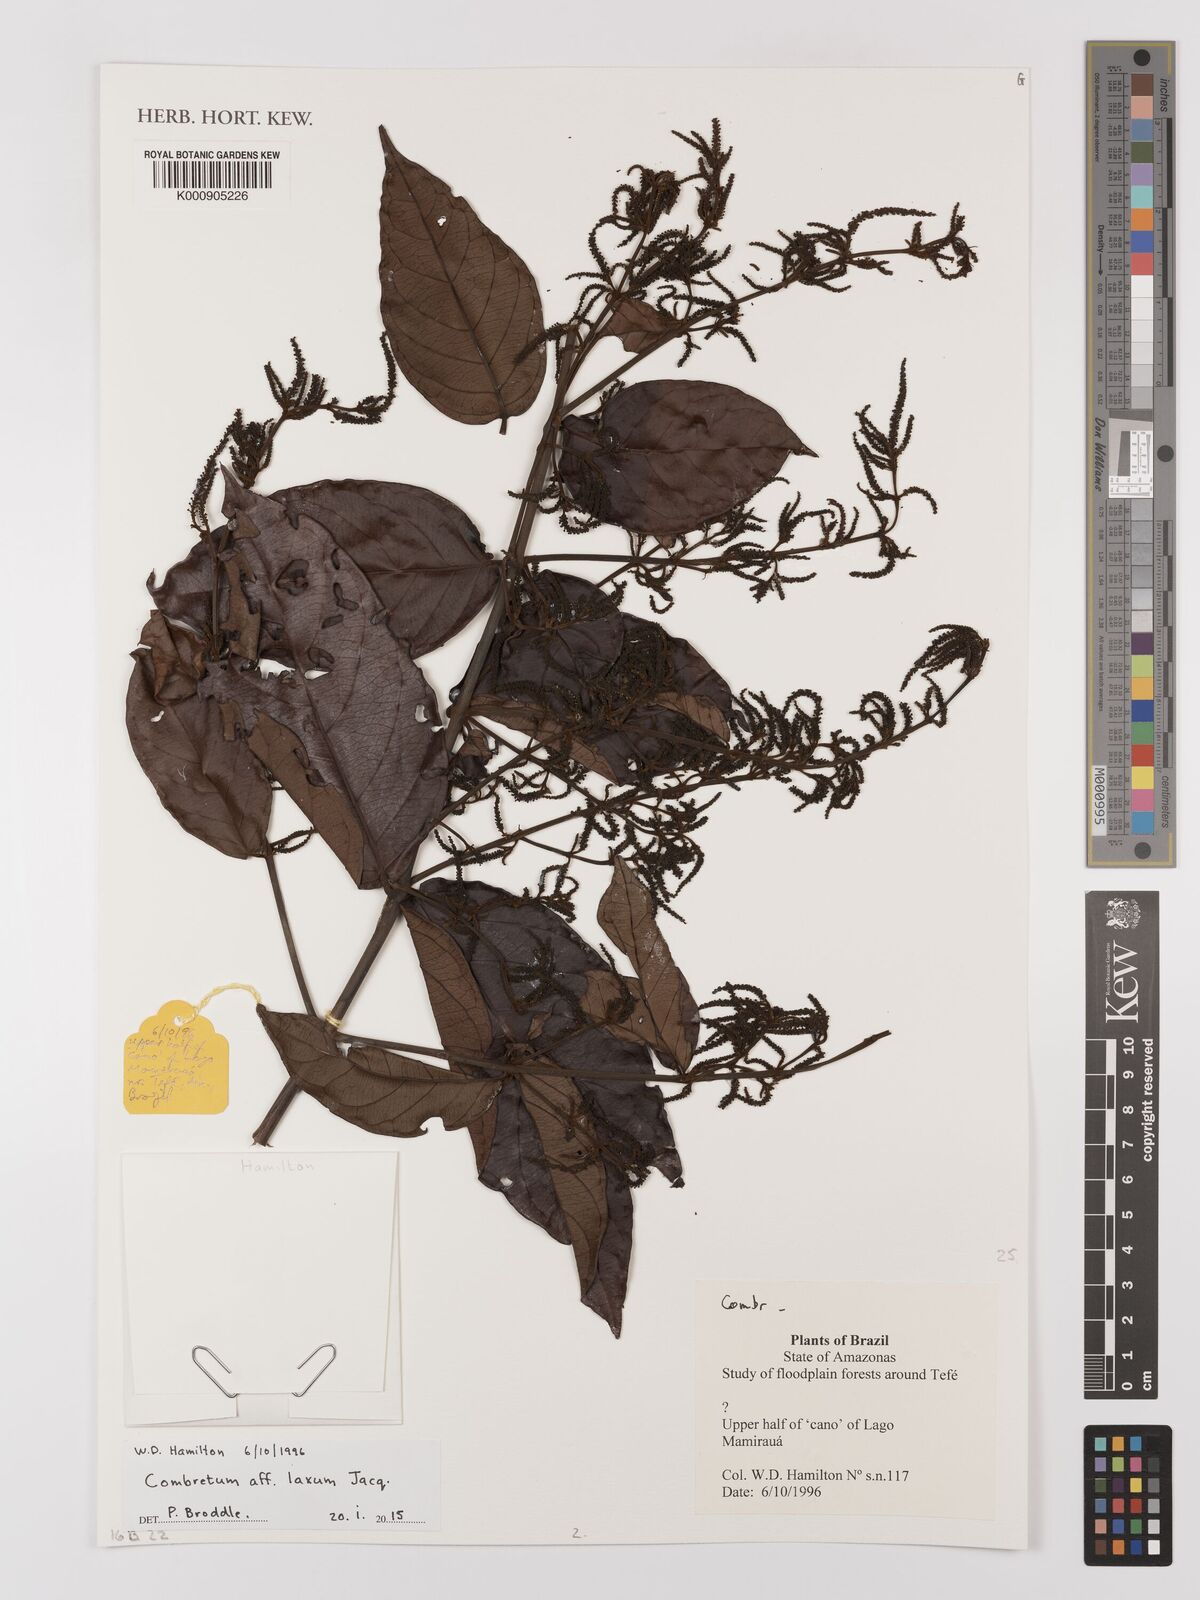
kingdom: Plantae
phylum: Tracheophyta
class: Magnoliopsida
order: Myrtales
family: Combretaceae
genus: Combretum
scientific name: Combretum laxum
